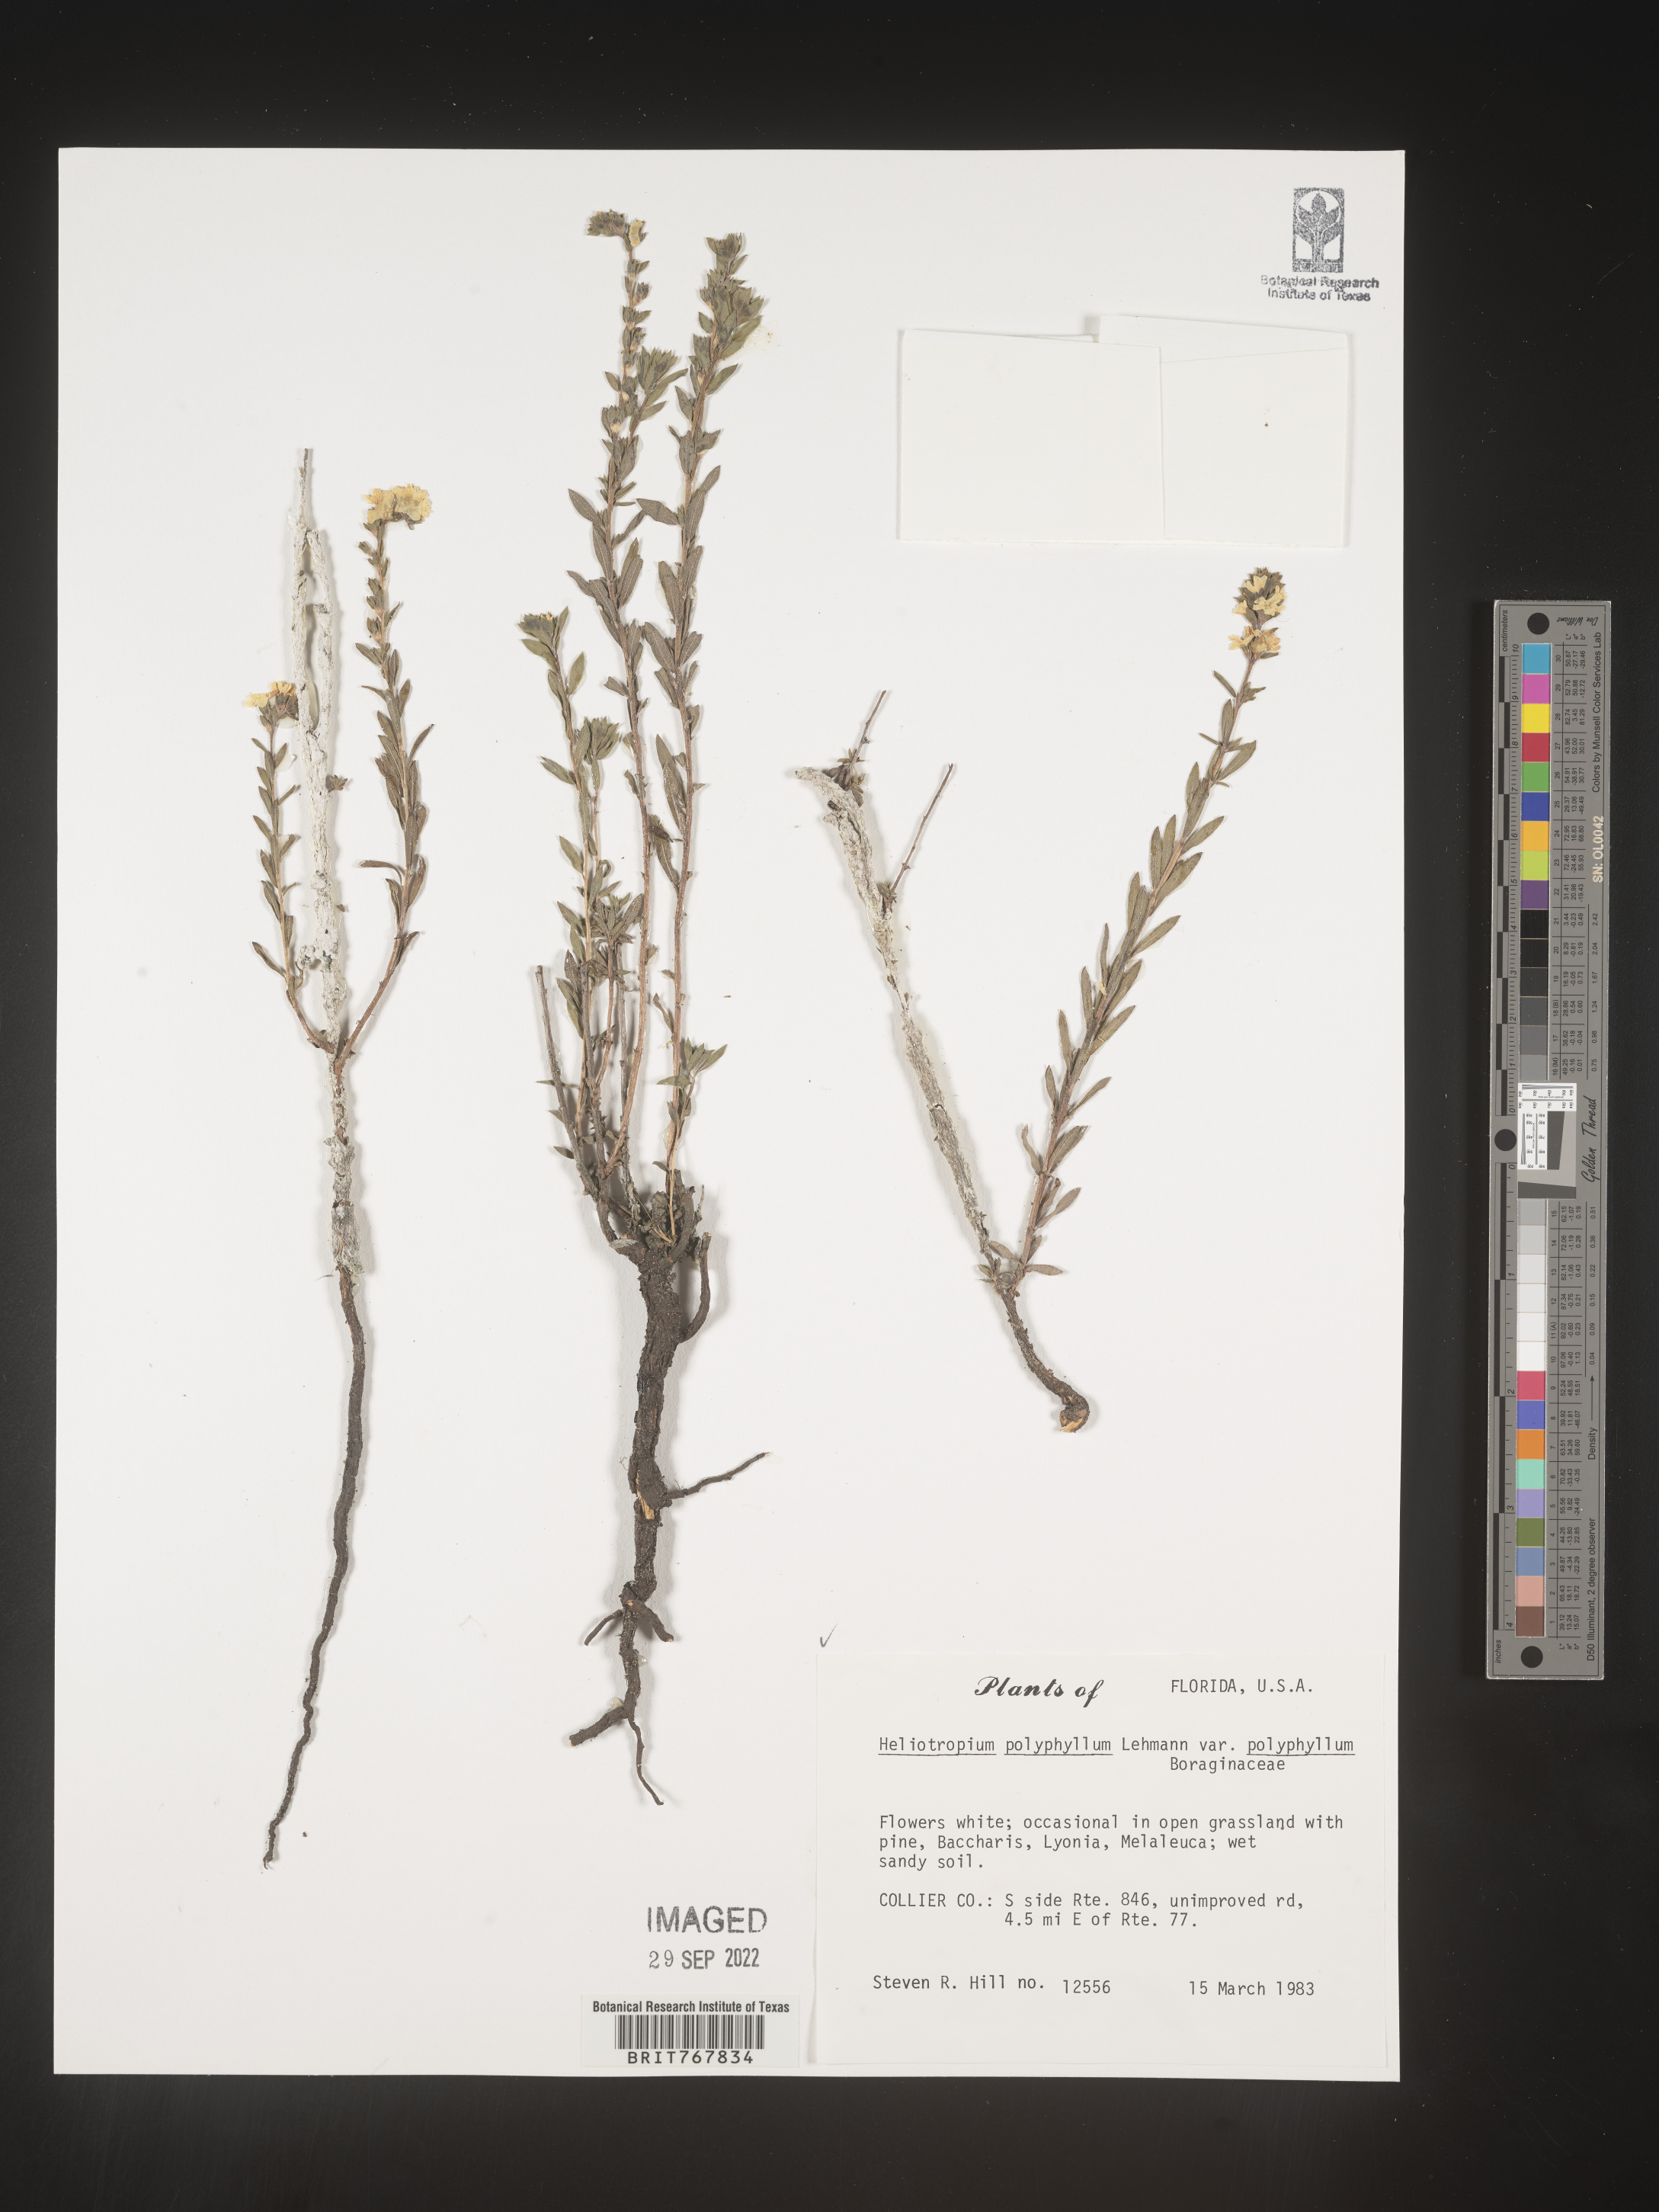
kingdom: Plantae
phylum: Tracheophyta
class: Magnoliopsida
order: Boraginales
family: Heliotropiaceae
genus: Heliotropium
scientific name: Heliotropium
